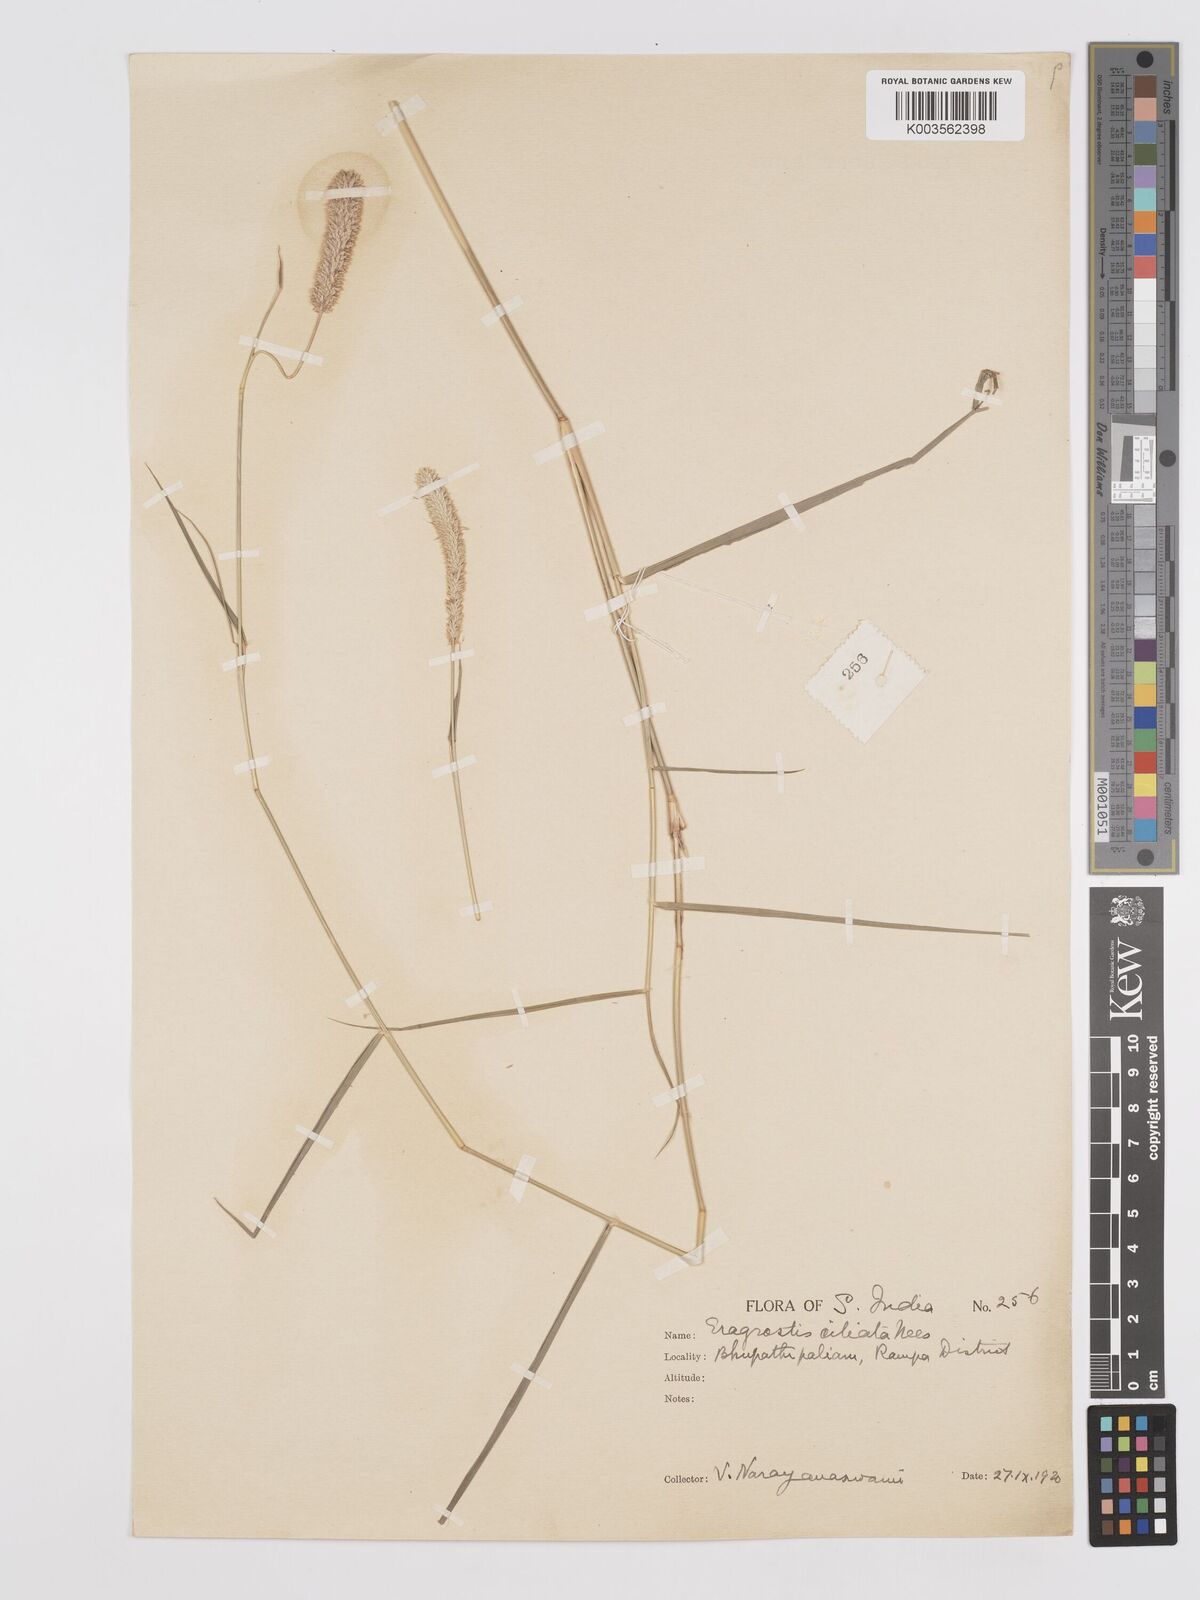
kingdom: Plantae
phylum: Tracheophyta
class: Liliopsida
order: Poales
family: Poaceae
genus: Eragrostis
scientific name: Eragrostis ciliata
